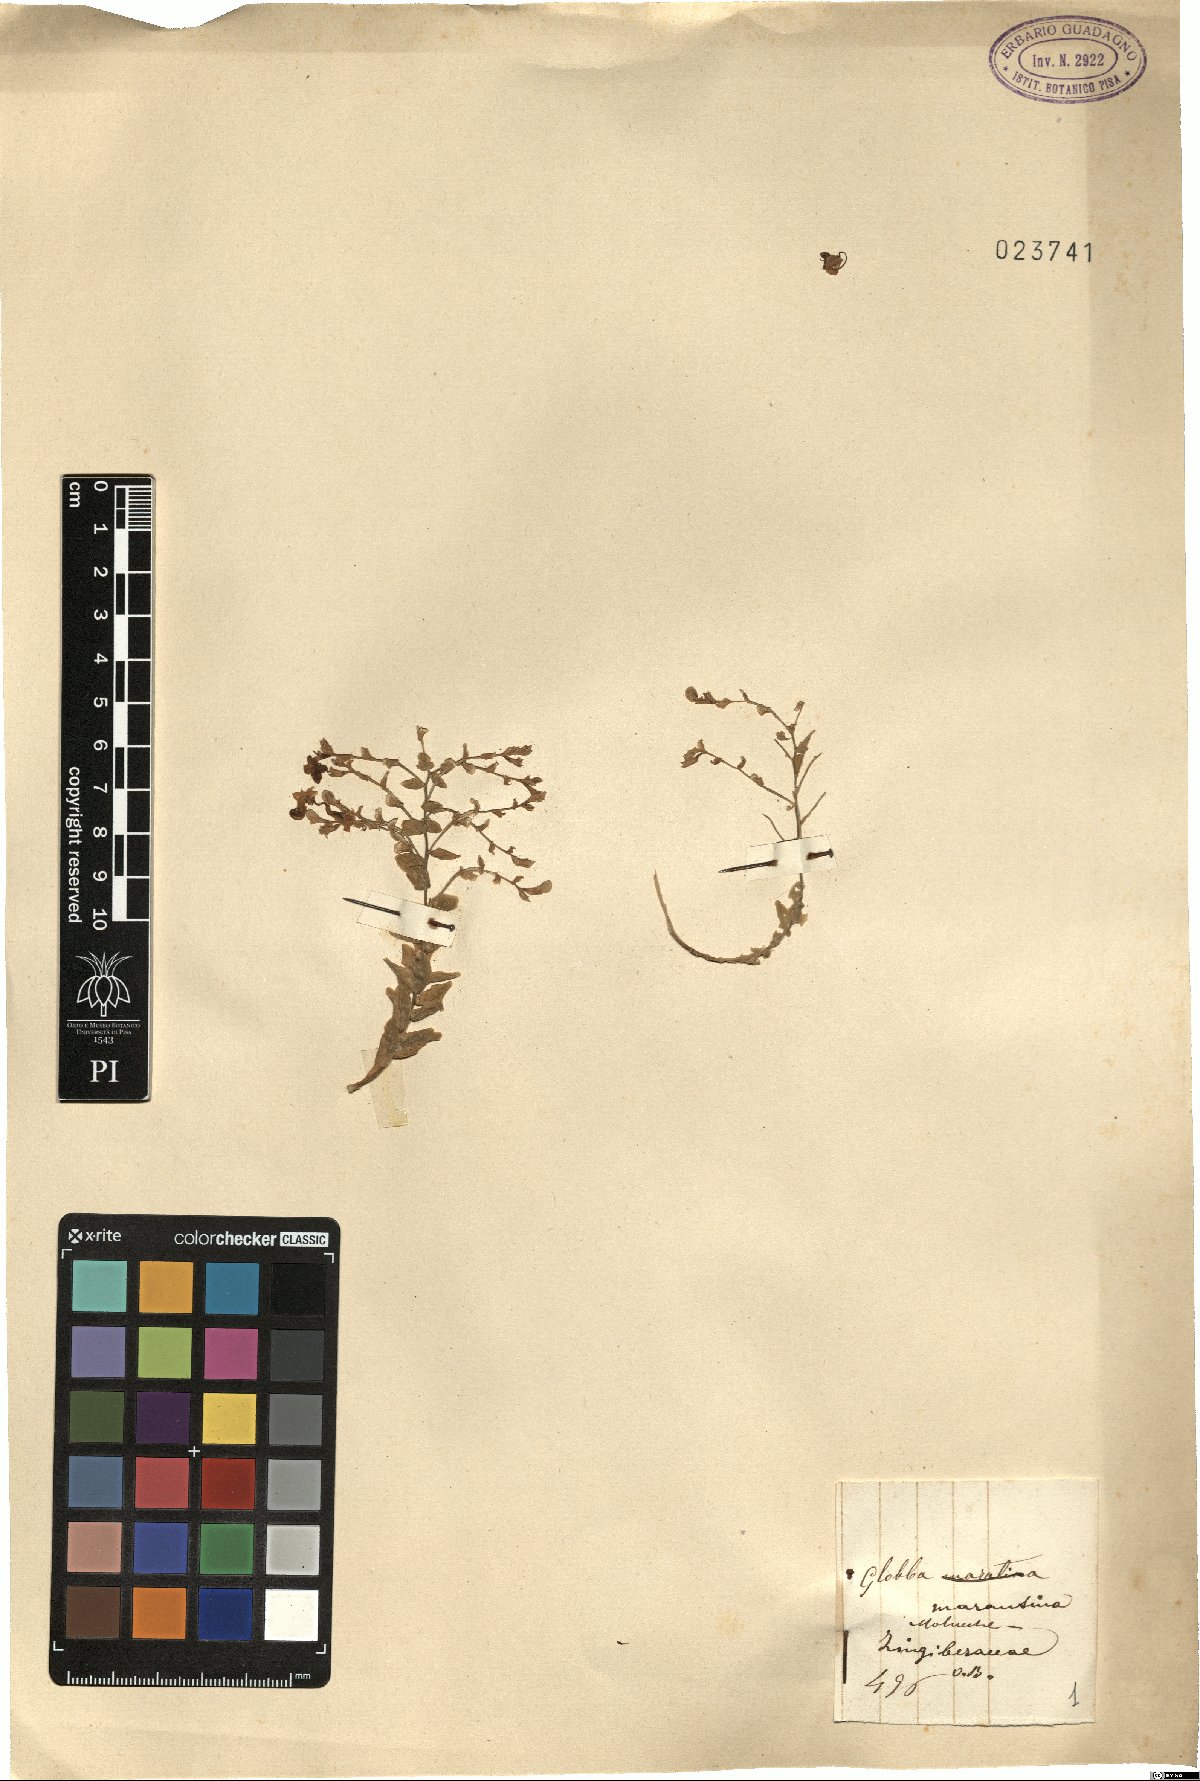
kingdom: Plantae
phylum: Tracheophyta
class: Liliopsida
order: Zingiberales
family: Zingiberaceae
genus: Globba
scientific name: Globba marantina
